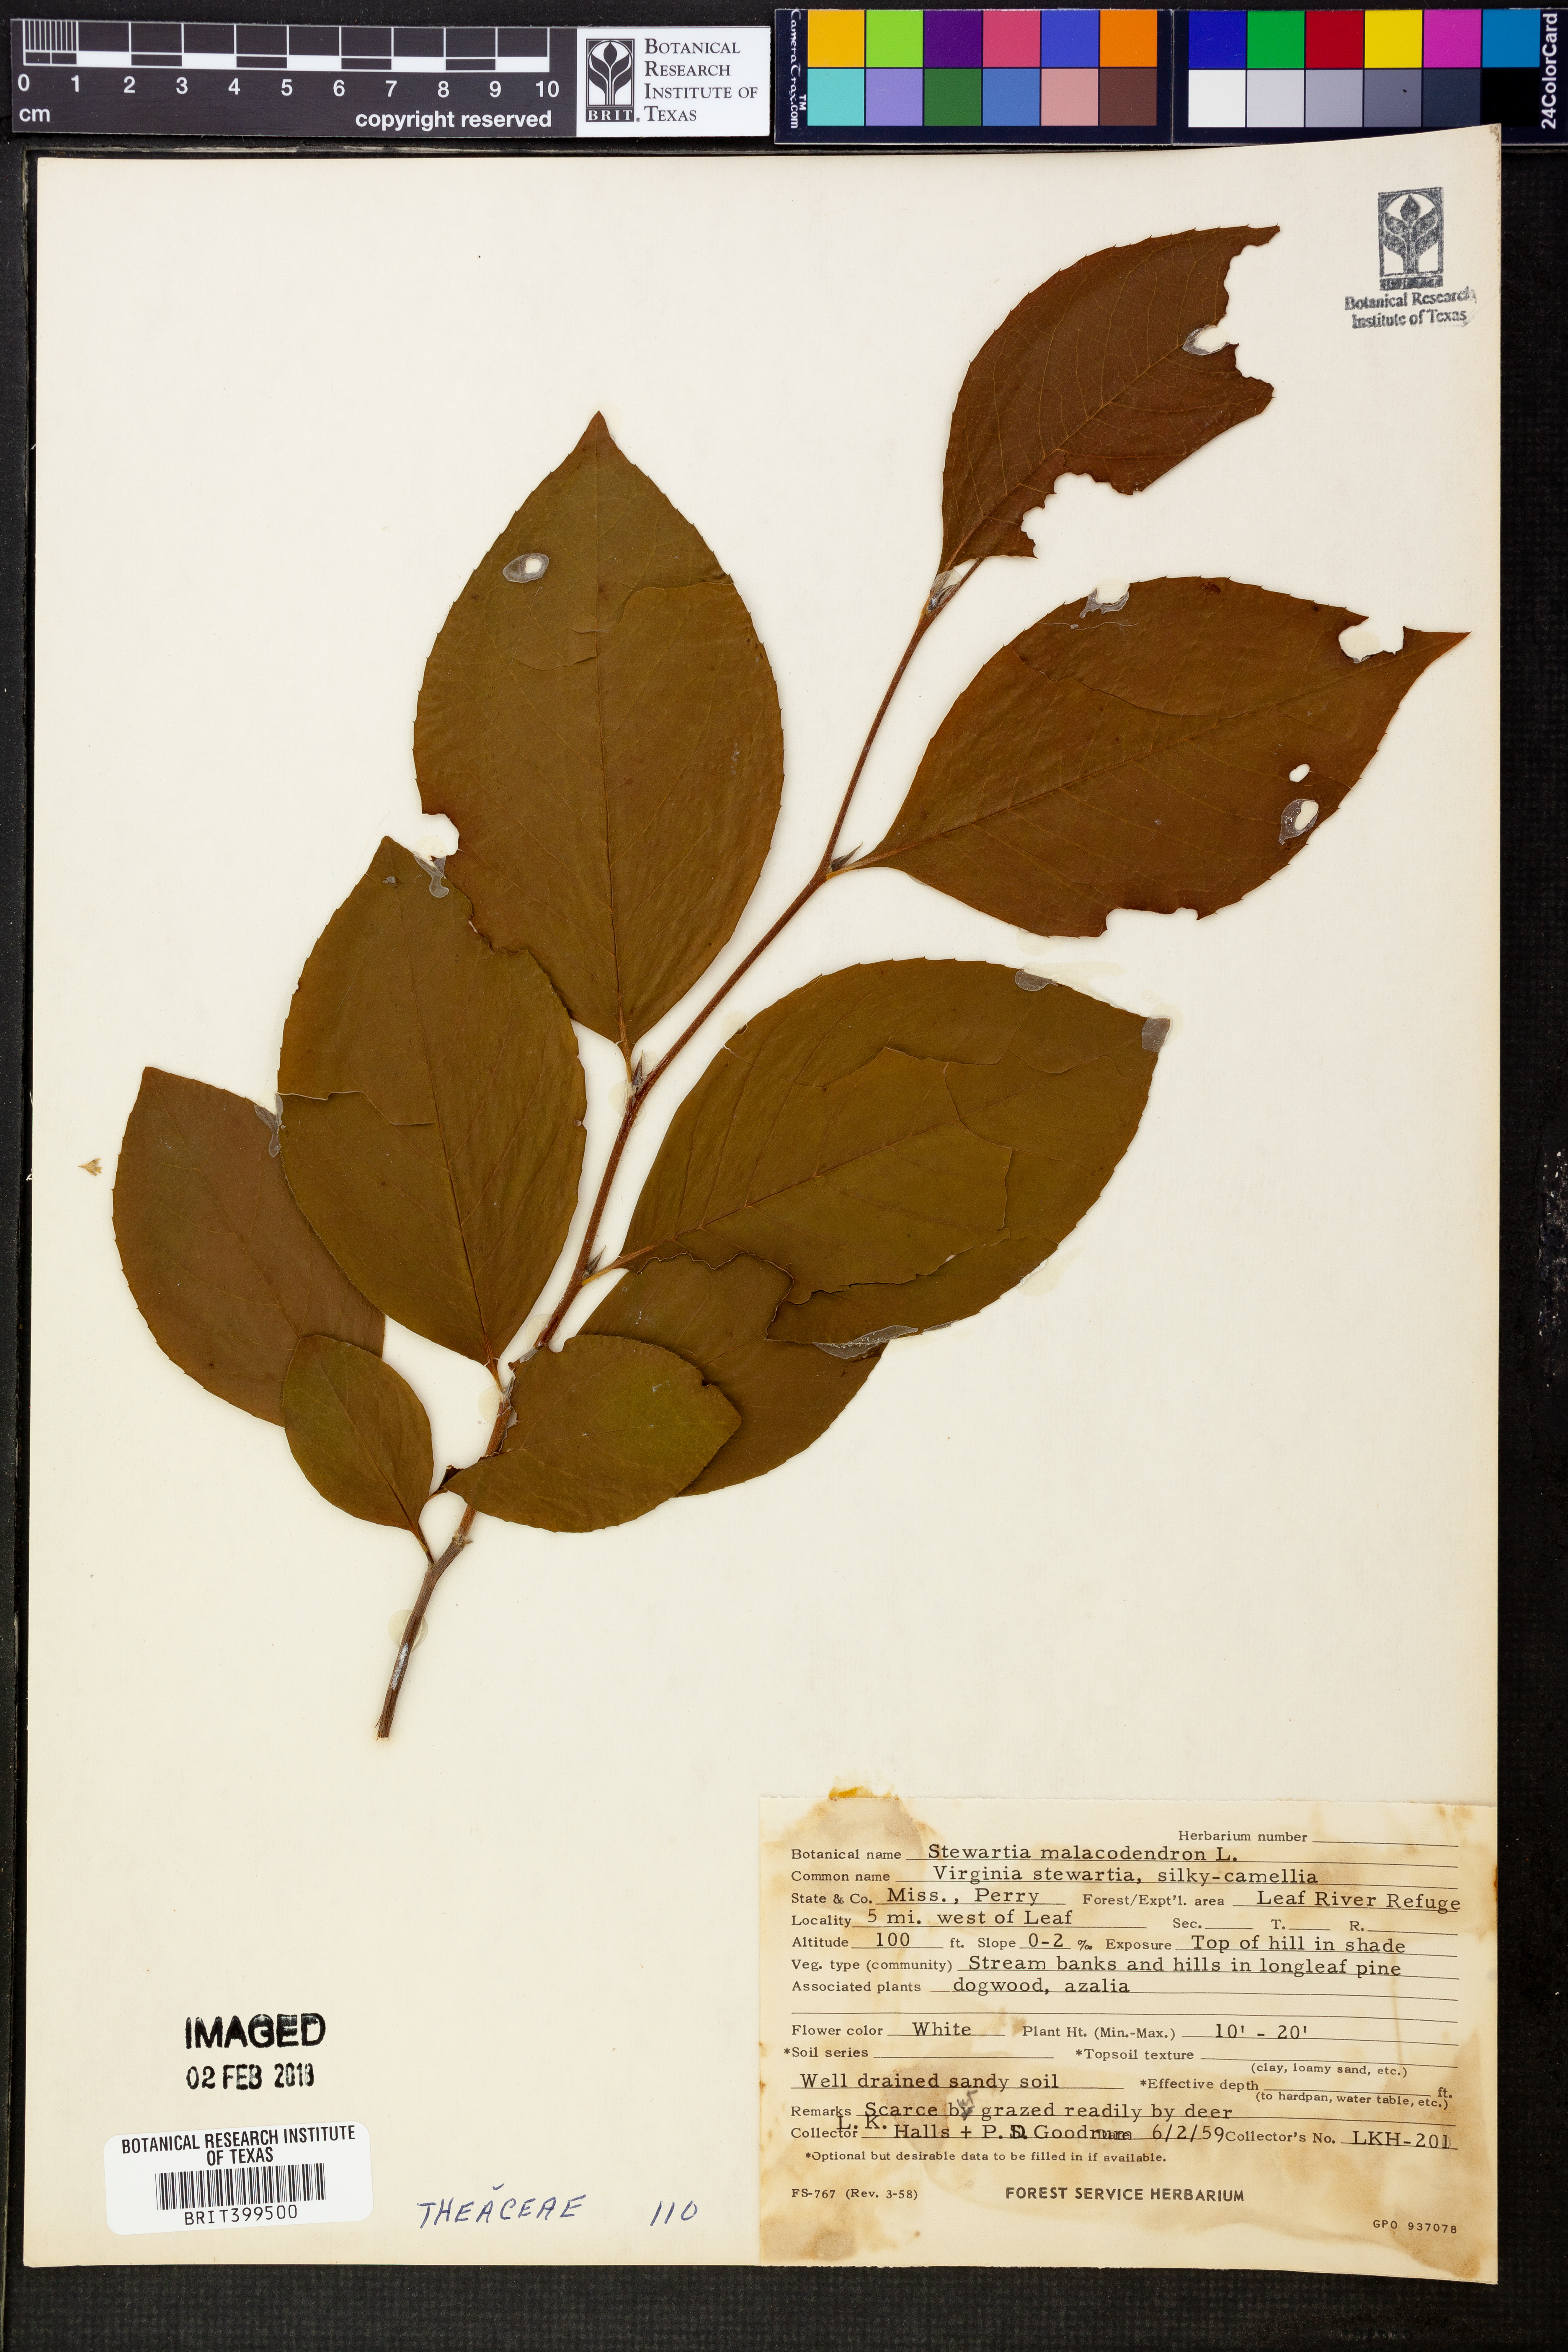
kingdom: Plantae
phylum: Tracheophyta
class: Magnoliopsida
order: Ericales
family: Theaceae
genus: Stewartia
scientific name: Stewartia malacodendron
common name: Virginia stewartia
